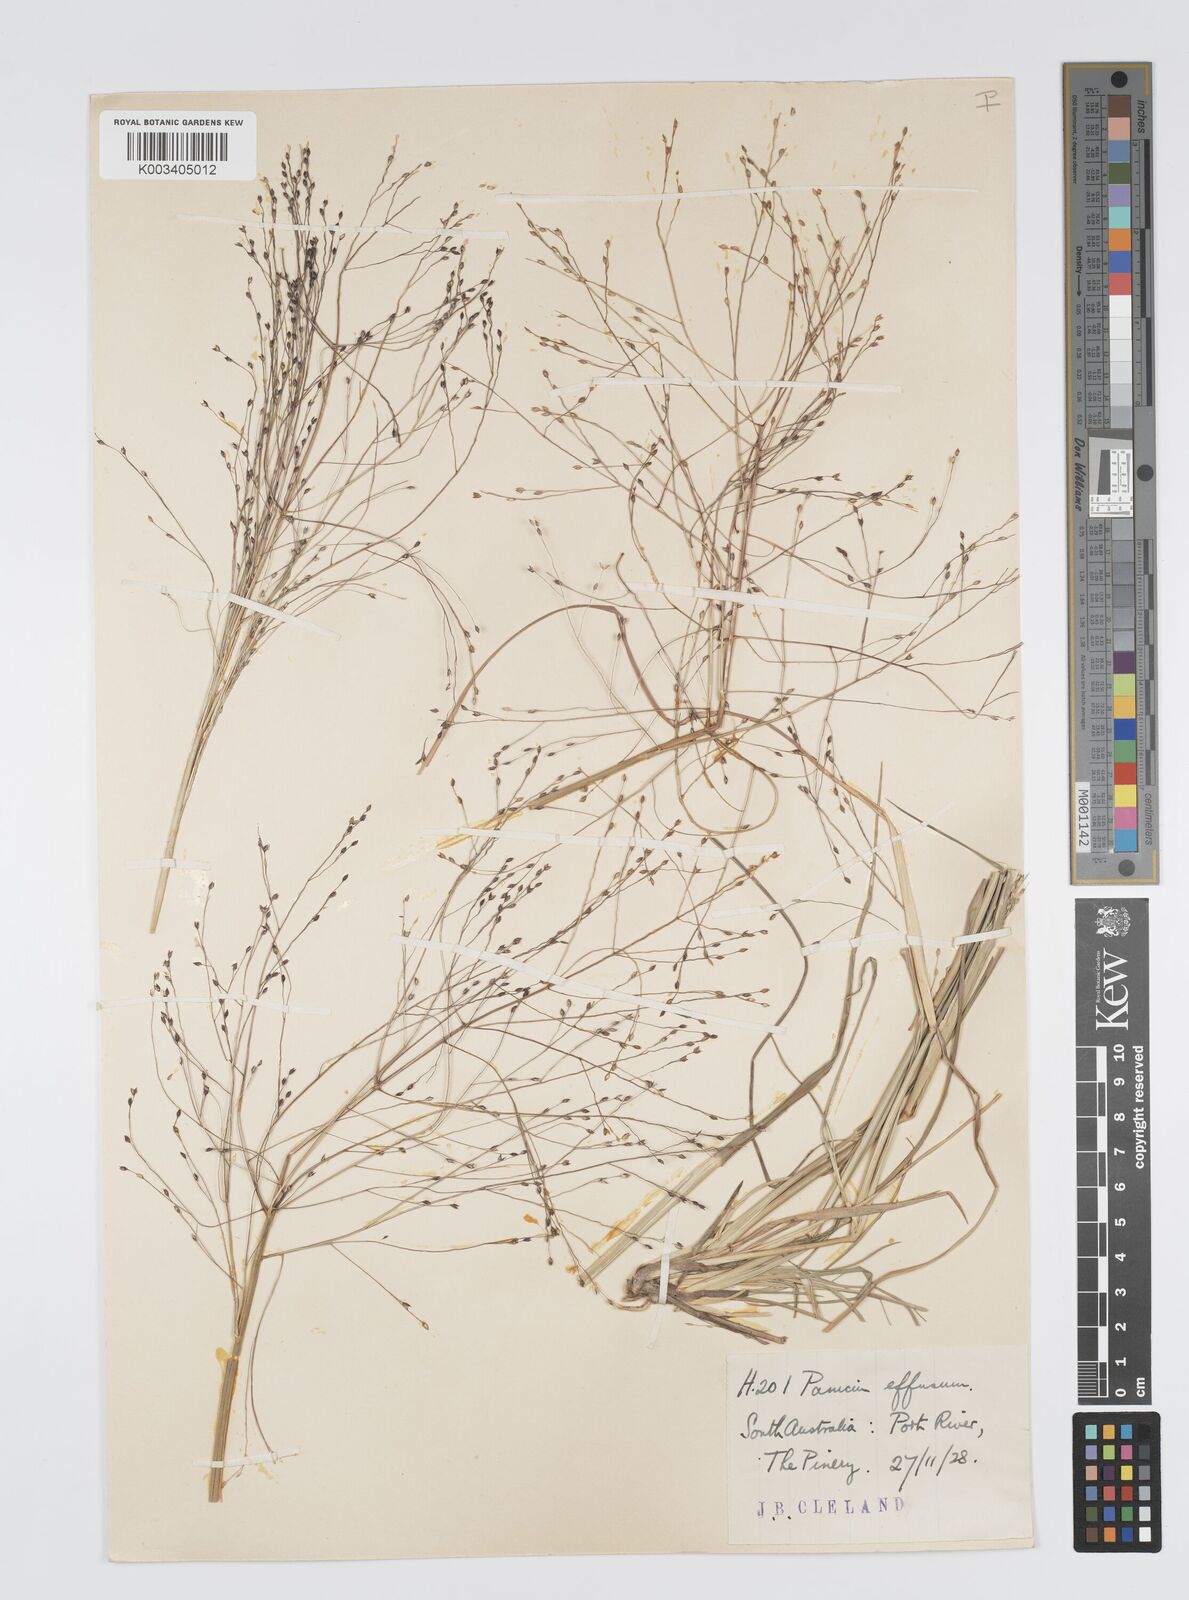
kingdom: Plantae
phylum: Tracheophyta
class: Liliopsida
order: Poales
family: Poaceae
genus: Panicum
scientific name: Panicum effusum
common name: Hairy panic grass
